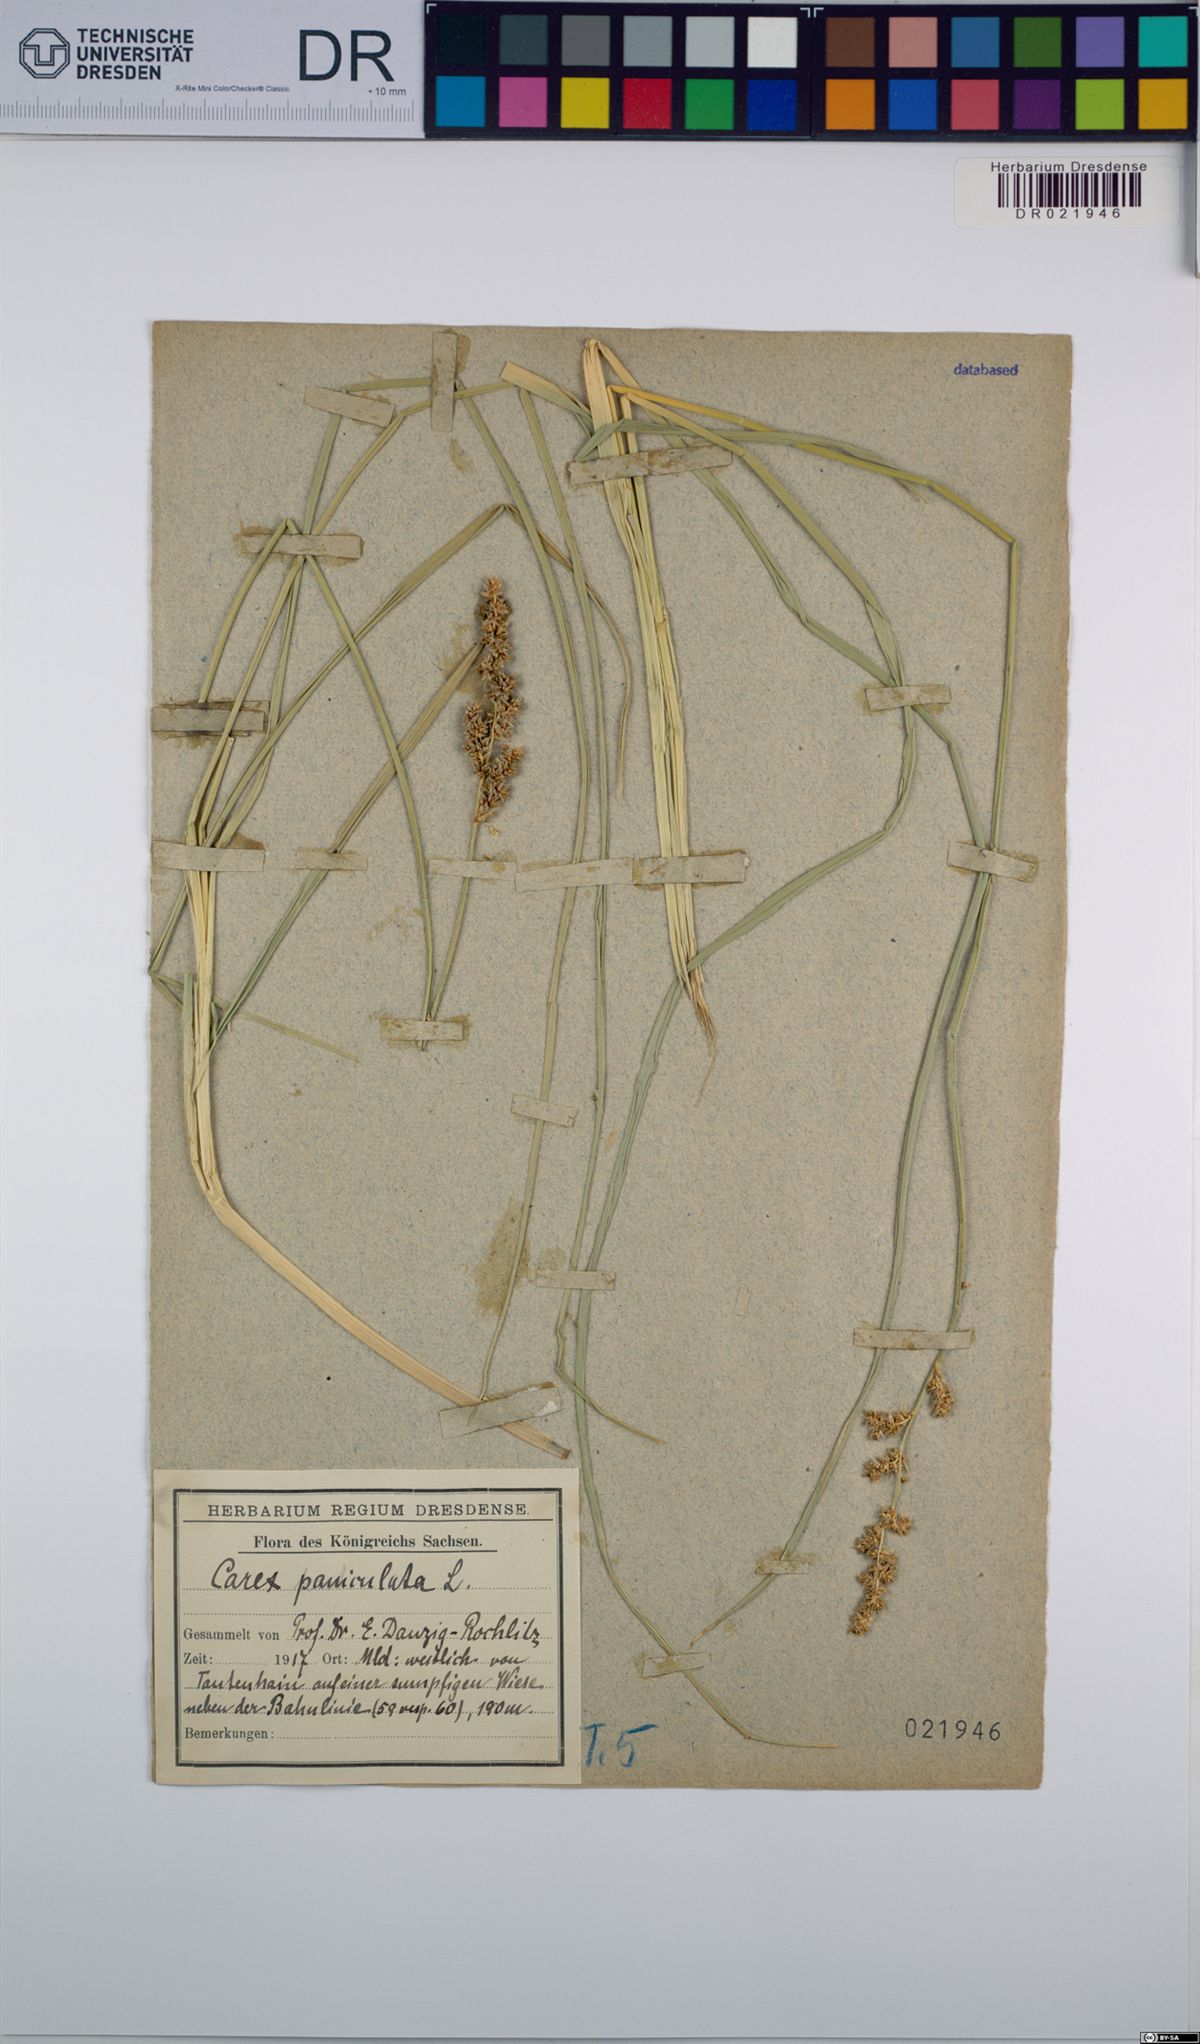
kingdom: Plantae
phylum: Tracheophyta
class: Liliopsida
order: Poales
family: Cyperaceae
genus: Carex
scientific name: Carex paniculata
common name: Greater tussock-sedge
